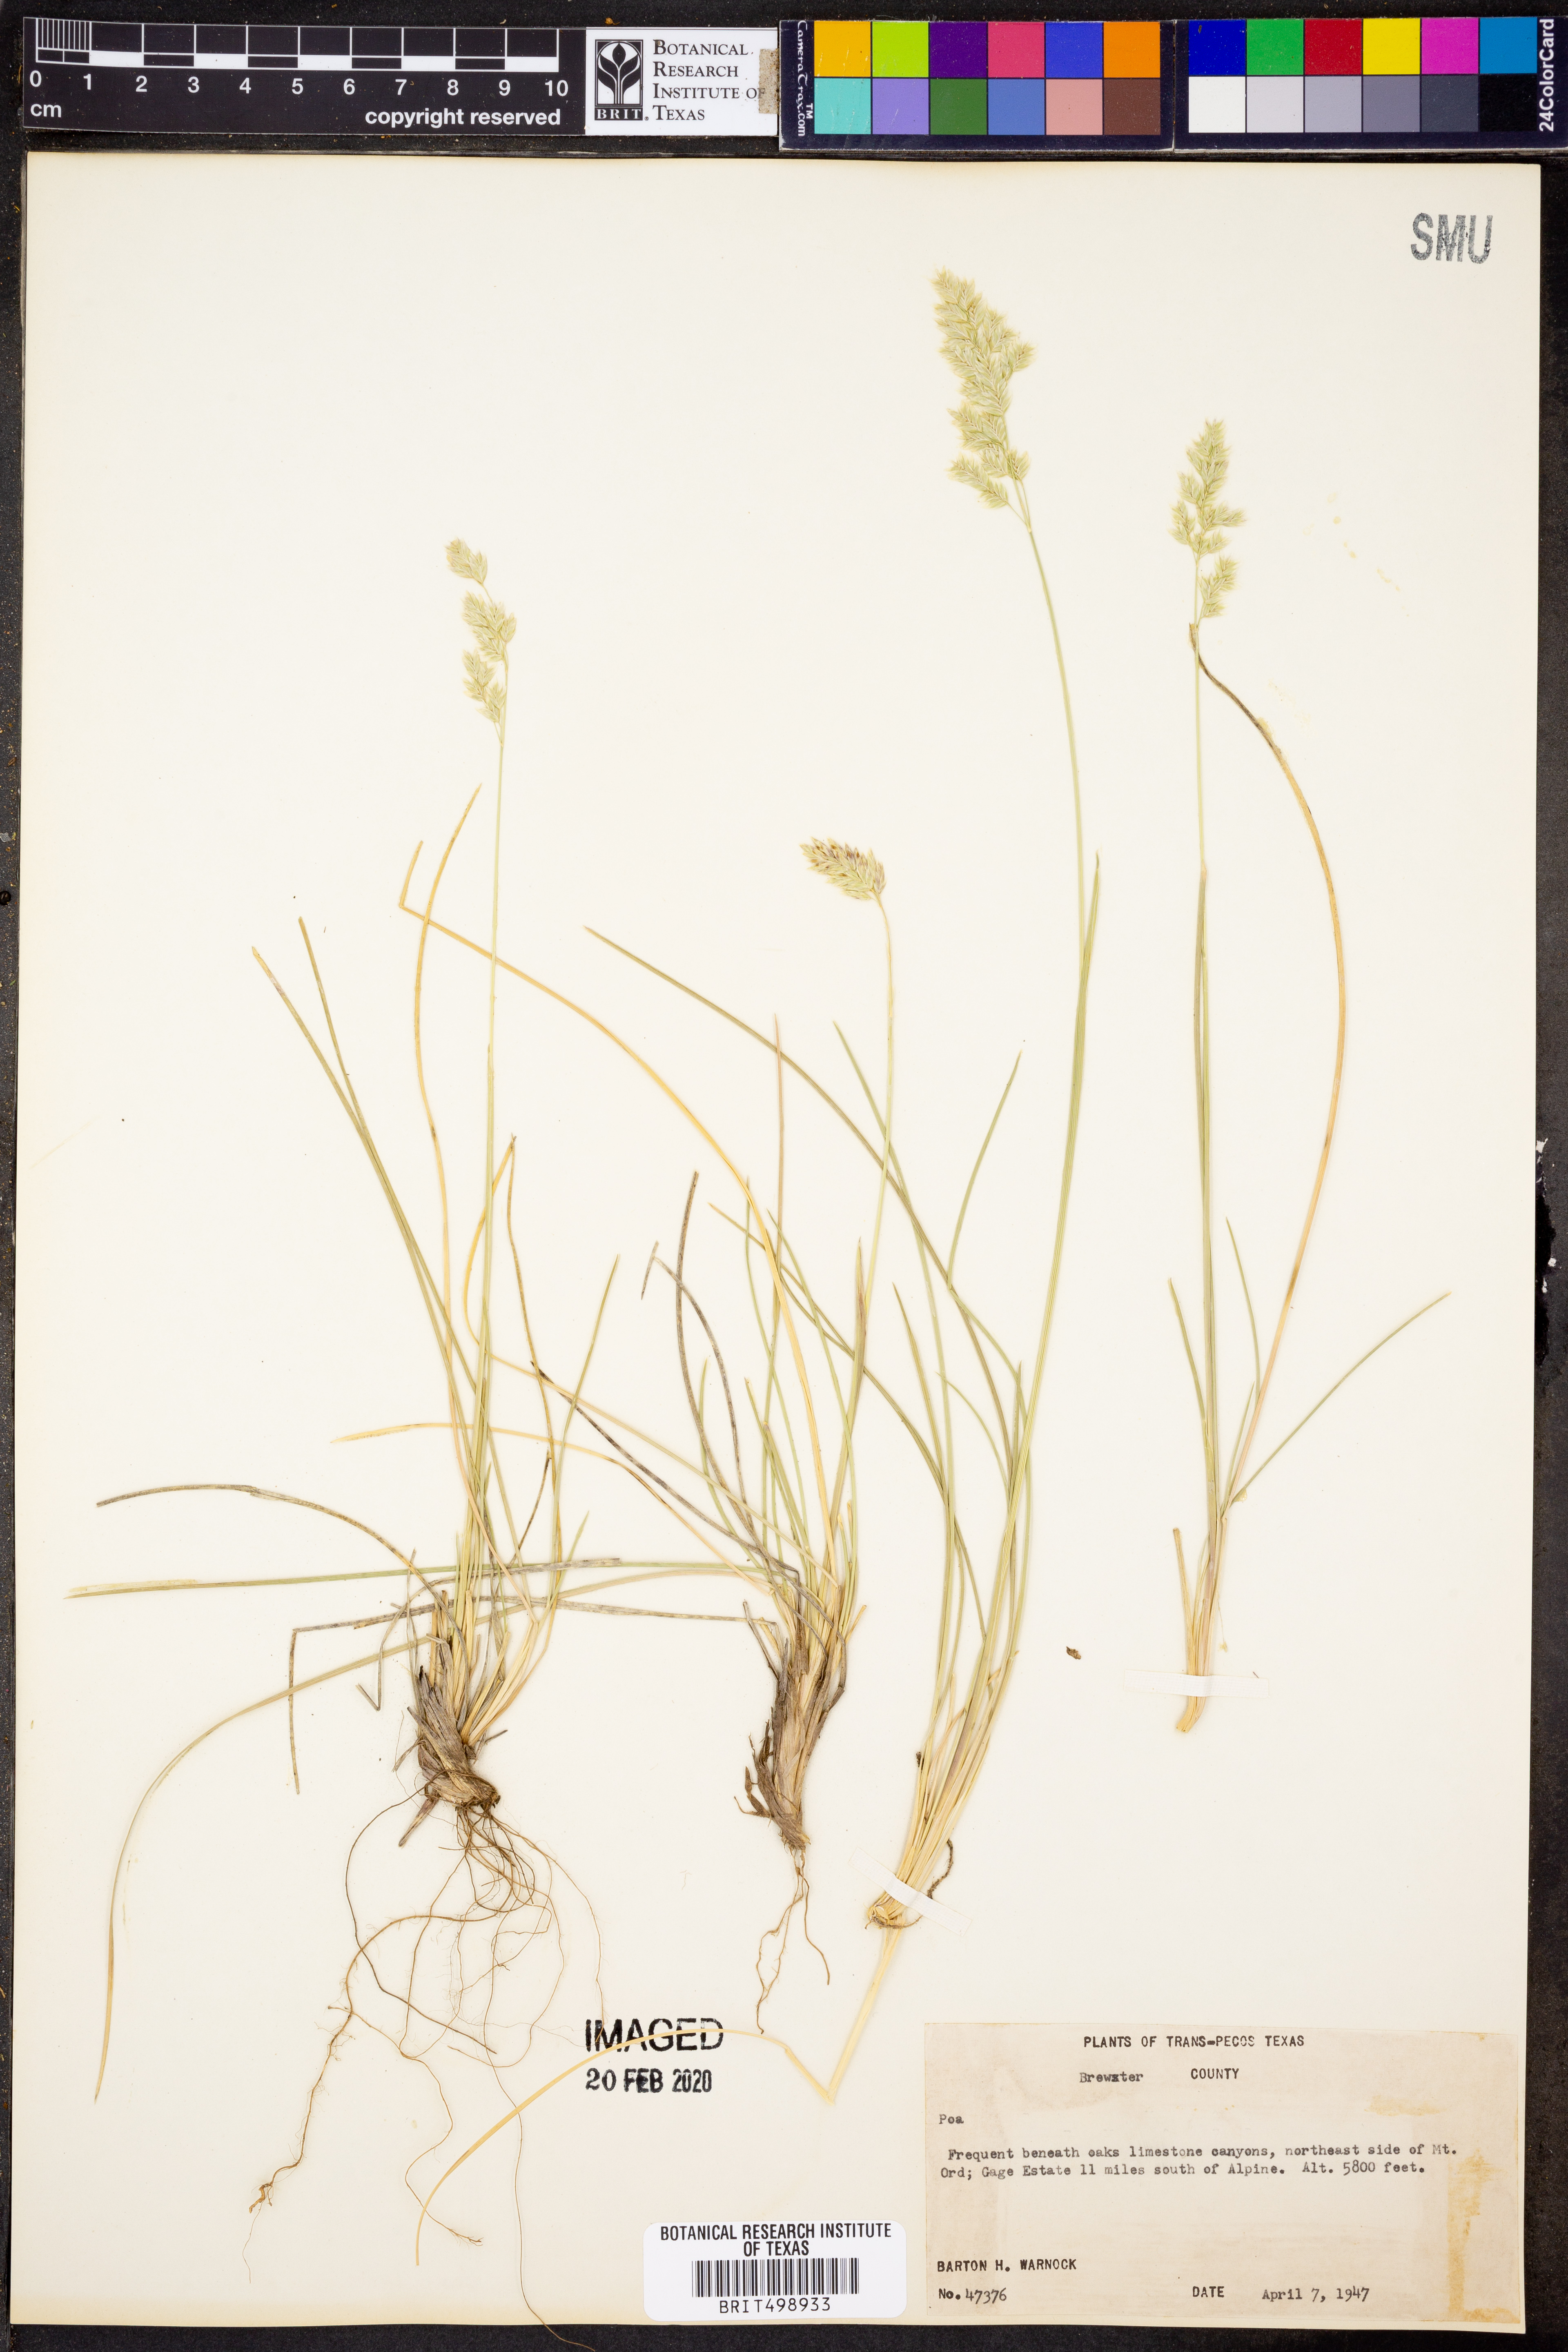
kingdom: Plantae
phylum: Tracheophyta
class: Liliopsida
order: Poales
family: Poaceae
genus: Poa
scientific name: Poa
